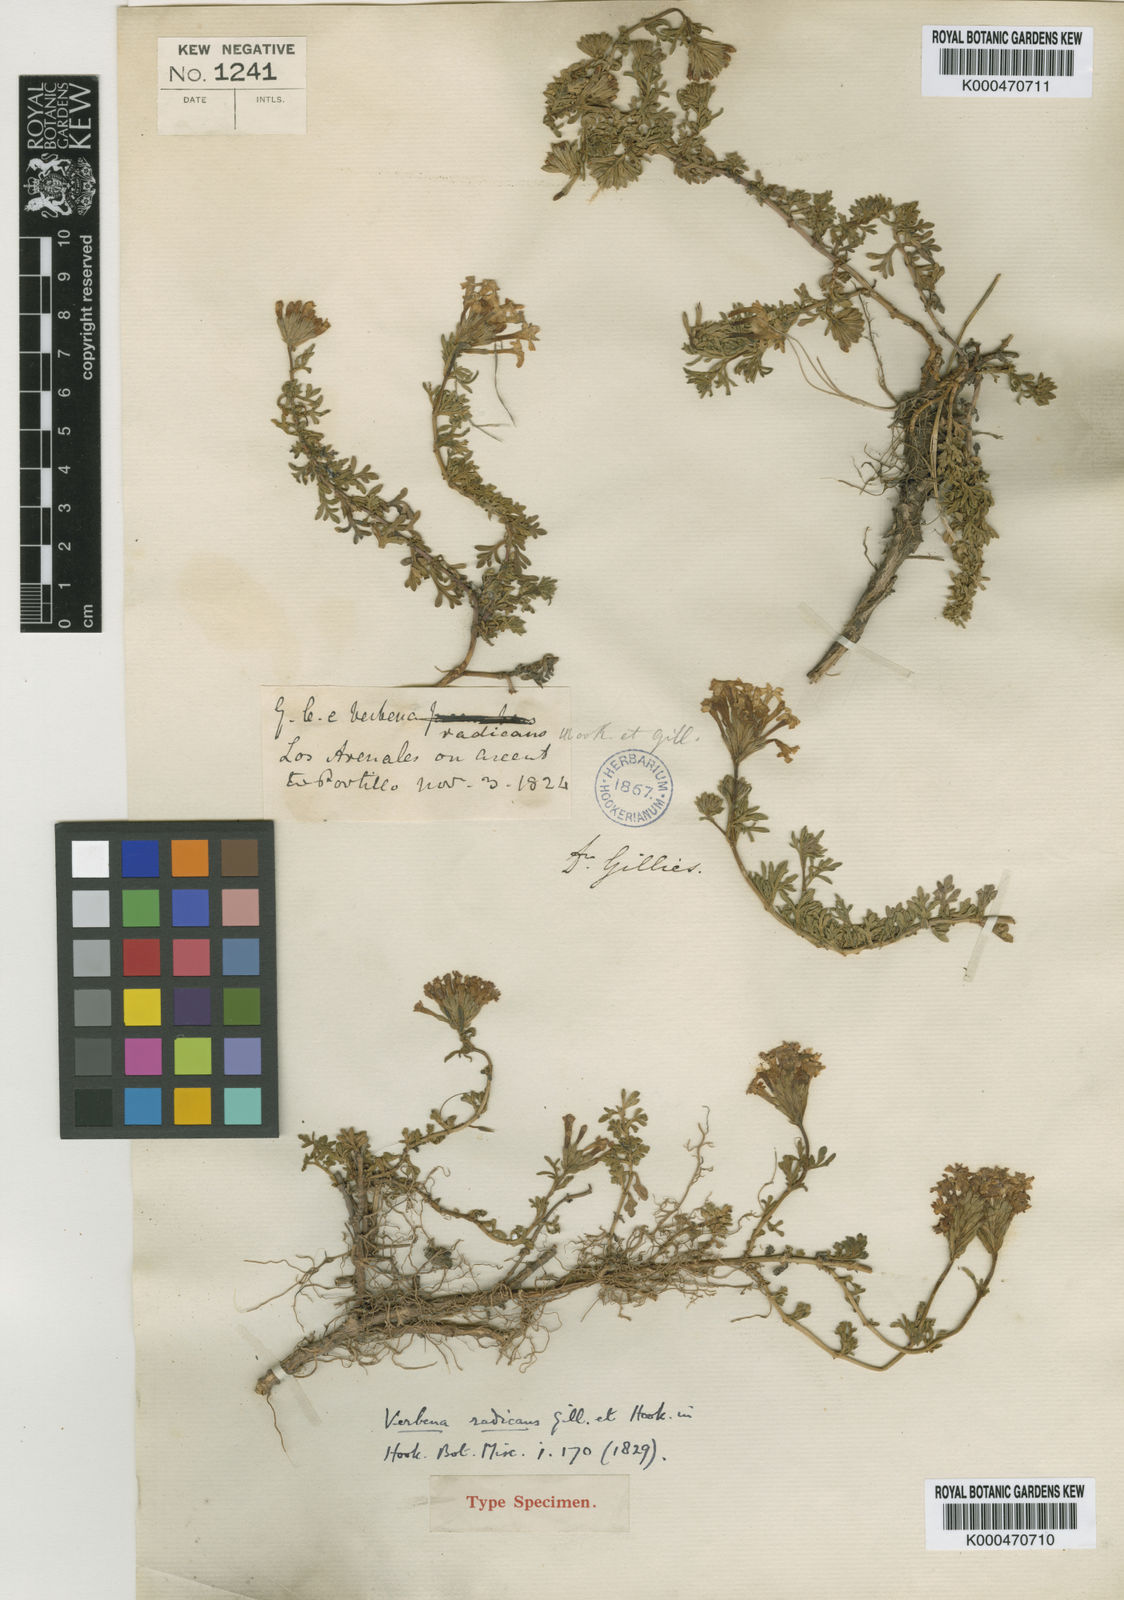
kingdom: Plantae
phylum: Tracheophyta
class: Magnoliopsida
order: Lamiales
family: Verbenaceae
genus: Verbena
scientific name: Verbena radicata
